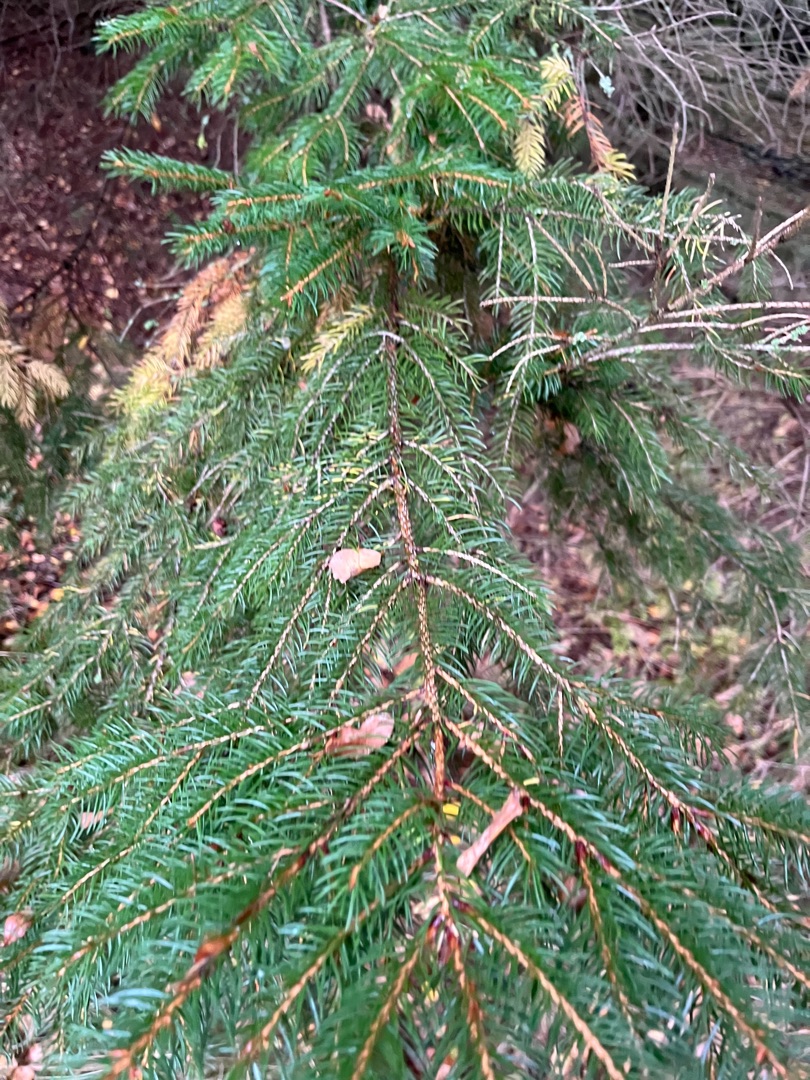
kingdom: Plantae
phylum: Tracheophyta
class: Pinopsida
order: Pinales
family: Pinaceae
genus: Picea
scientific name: Picea abies
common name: Rød-gran
